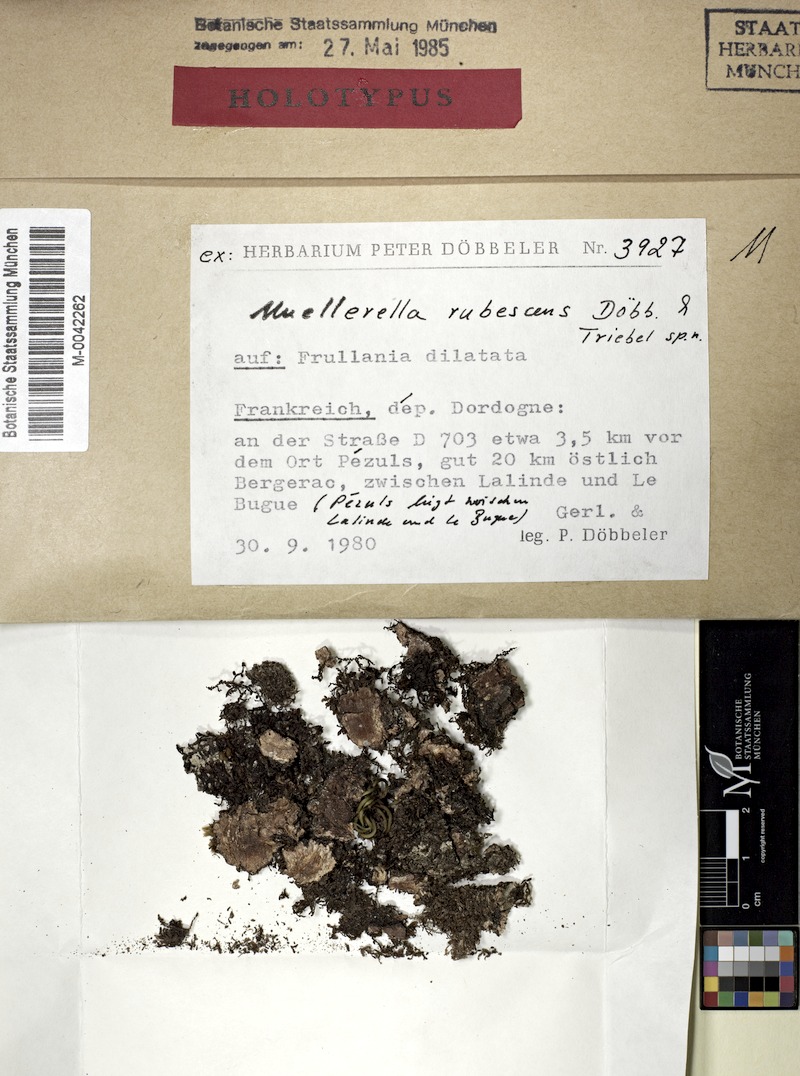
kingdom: Fungi
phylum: Ascomycota
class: Eurotiomycetes
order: Verrucariales
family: Verrucariaceae
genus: Muellerella
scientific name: Muellerella rubescens
